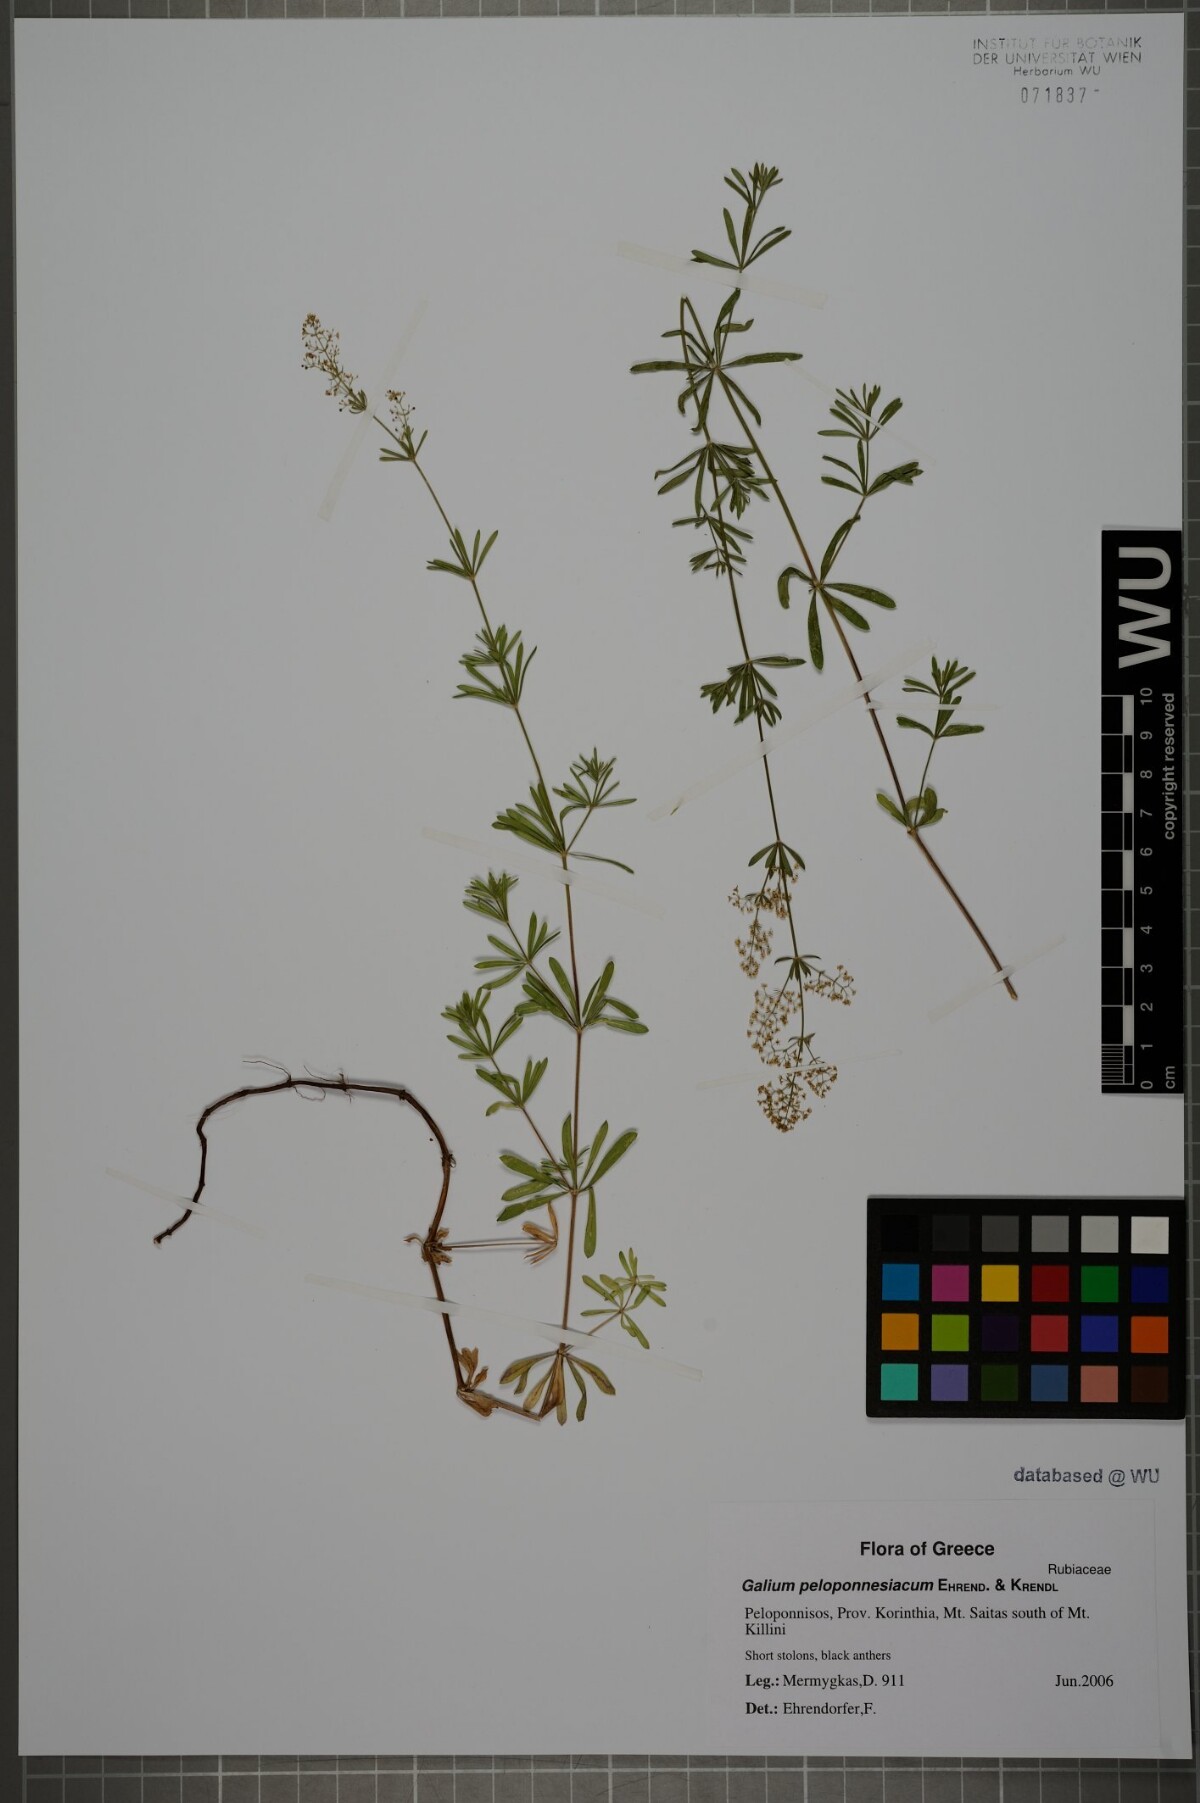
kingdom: Plantae
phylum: Tracheophyta
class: Magnoliopsida
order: Gentianales
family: Rubiaceae
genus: Galium
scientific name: Galium peloponnesiacum
